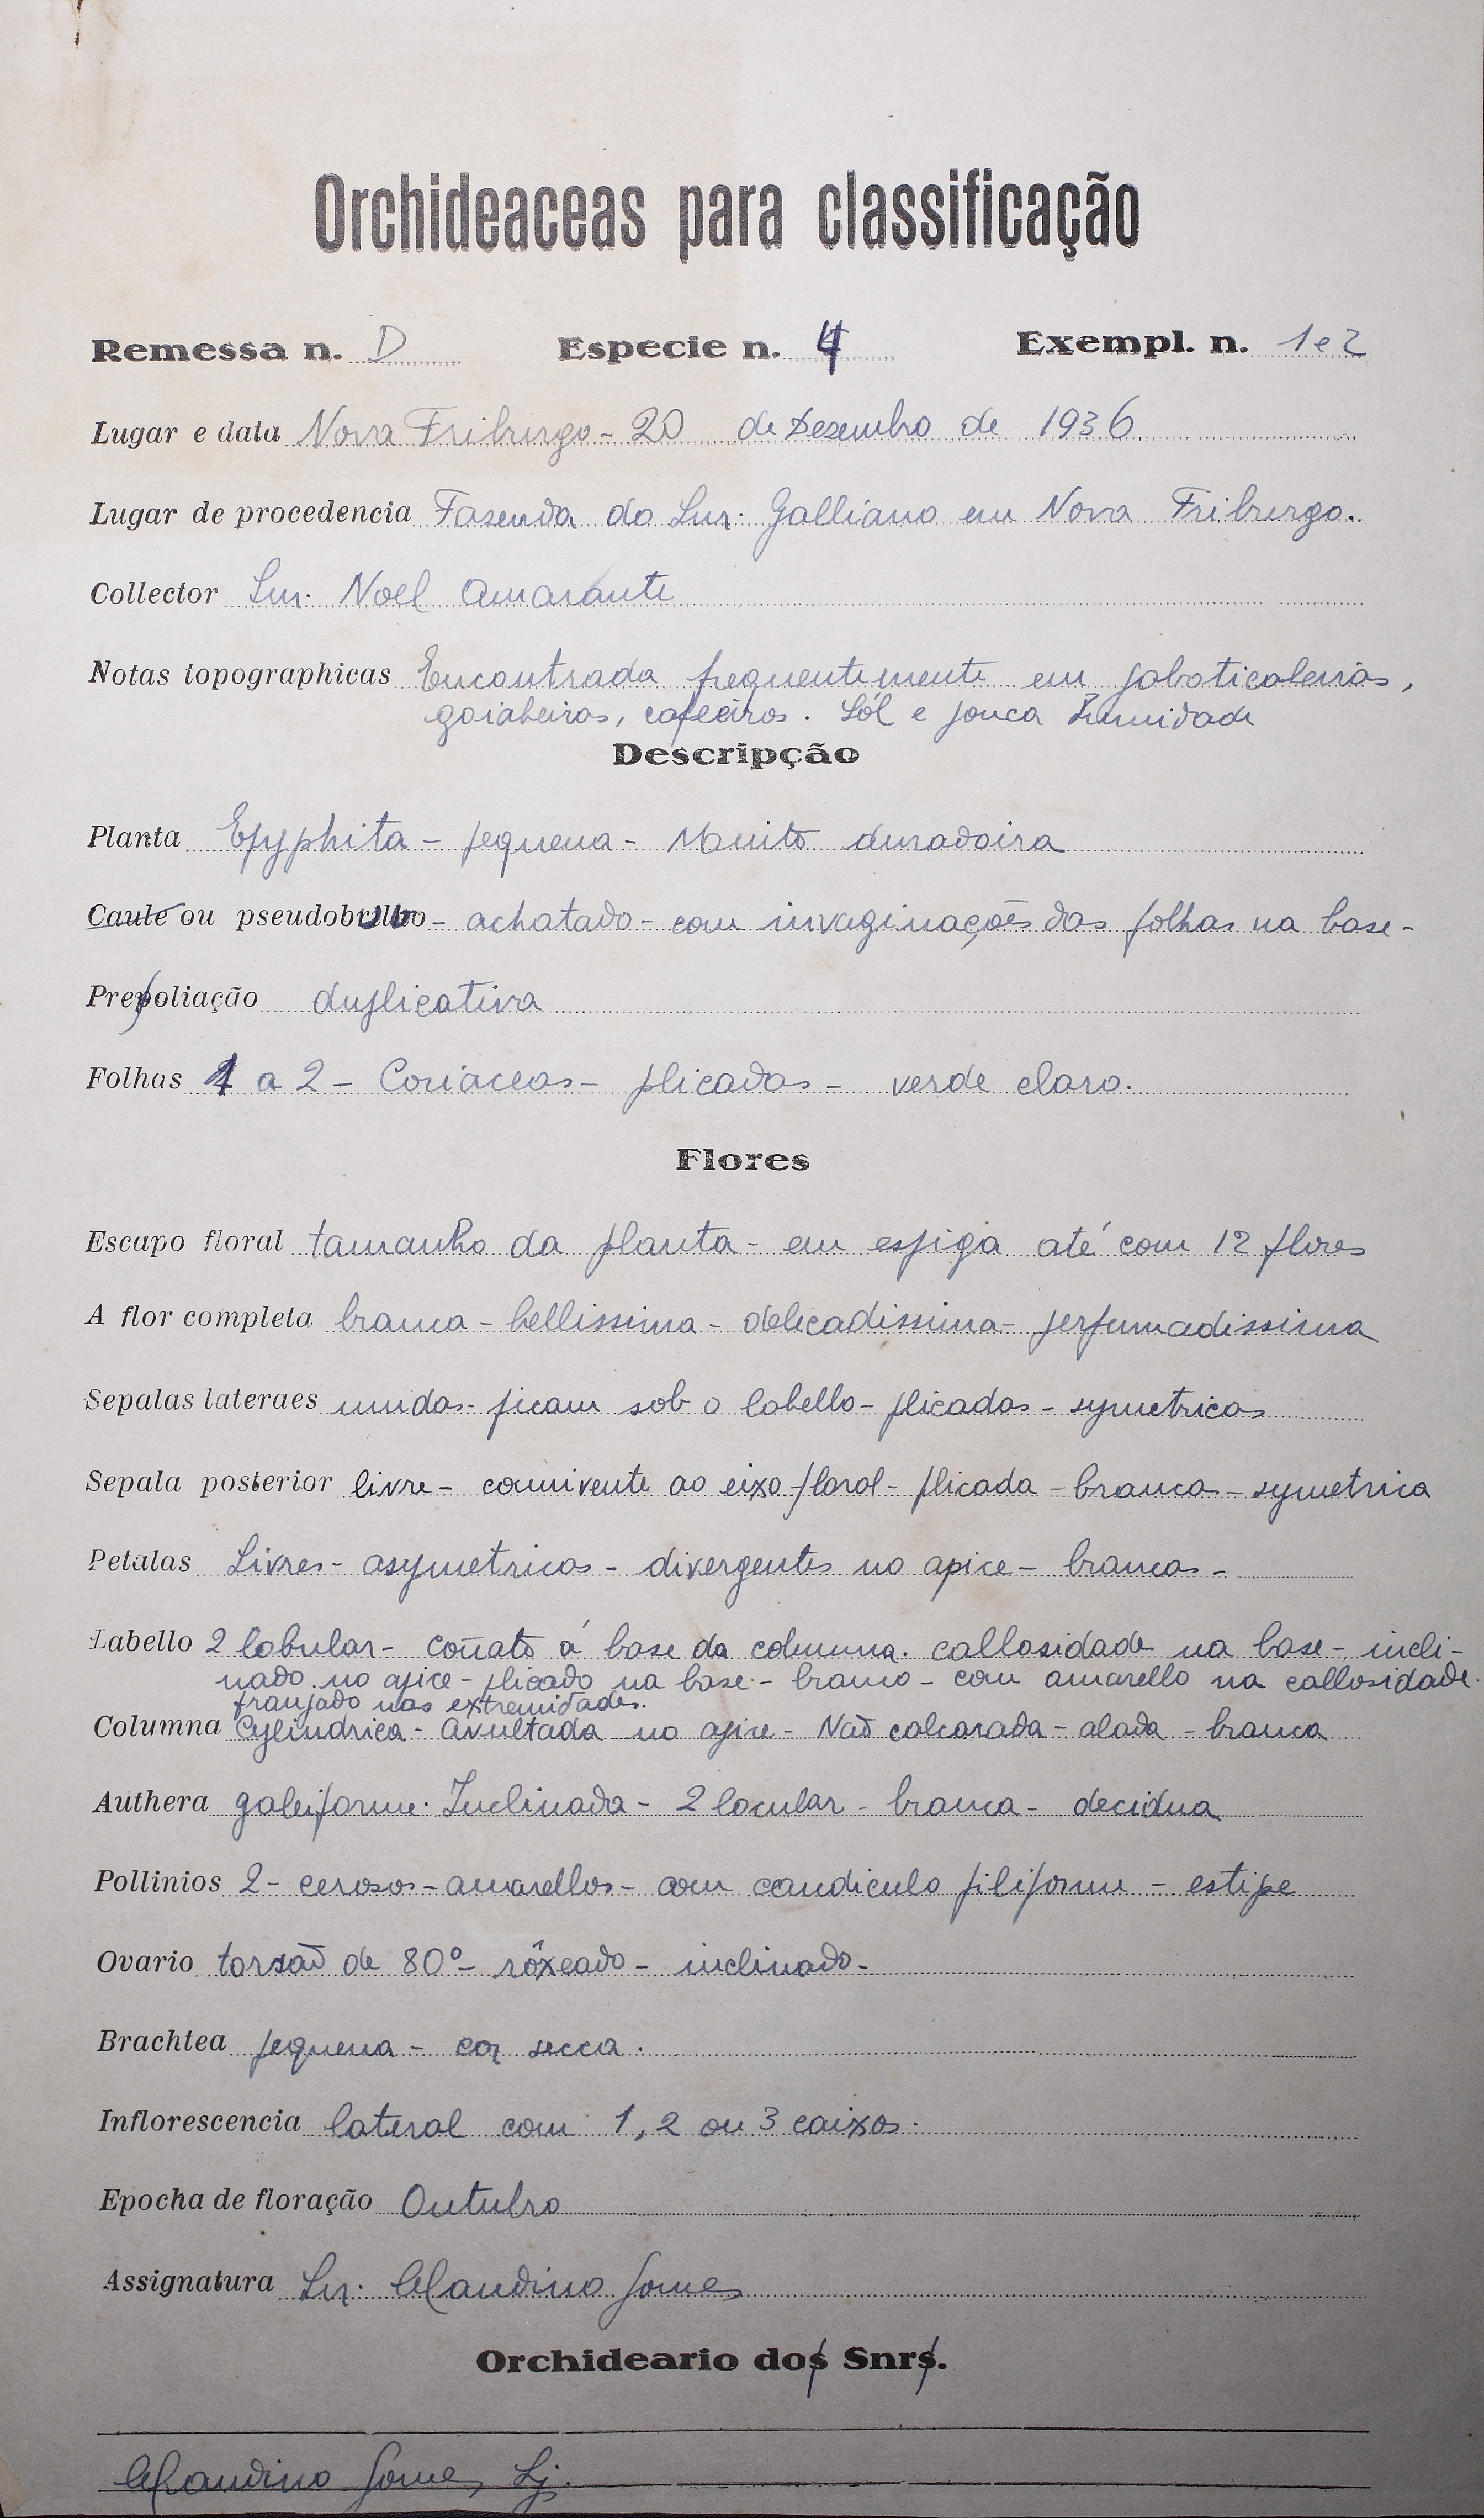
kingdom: Plantae
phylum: Tracheophyta
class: Liliopsida
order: Asparagales
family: Orchidaceae
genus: Rodriguezia
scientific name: Rodriguezia bracteata
